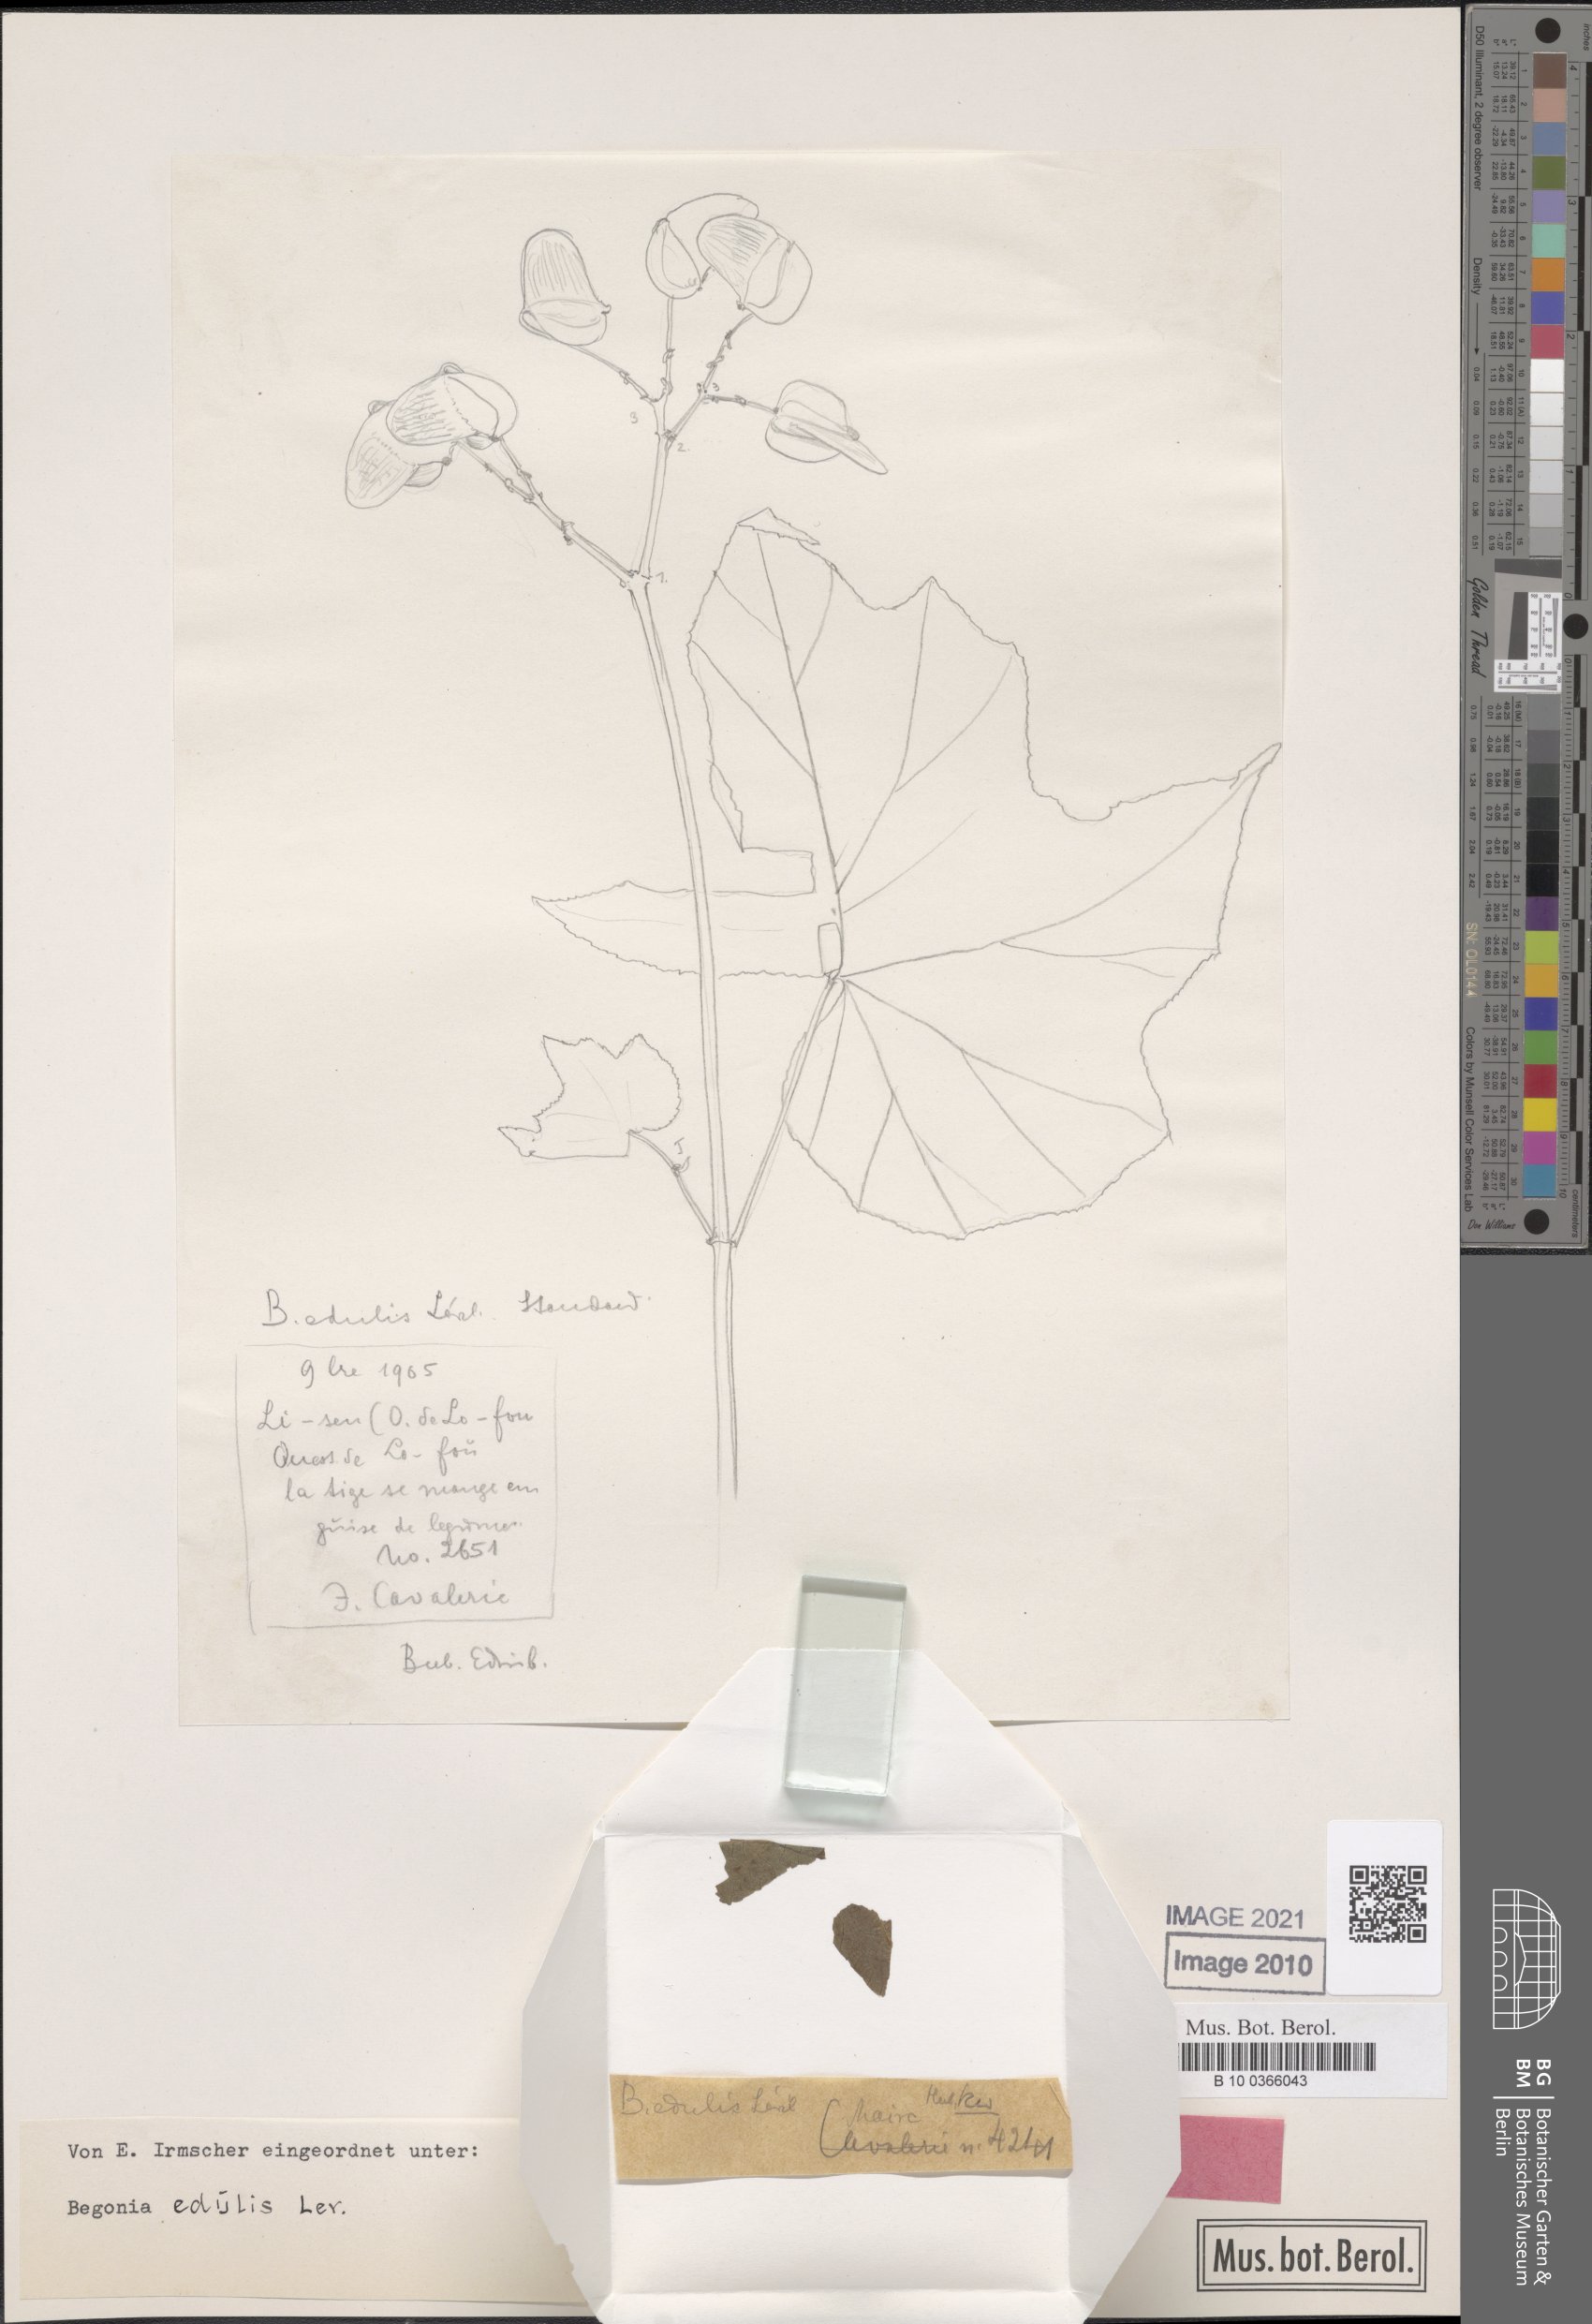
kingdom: Plantae
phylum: Tracheophyta
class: Magnoliopsida
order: Cucurbitales
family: Begoniaceae
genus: Begonia
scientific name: Begonia edulis
